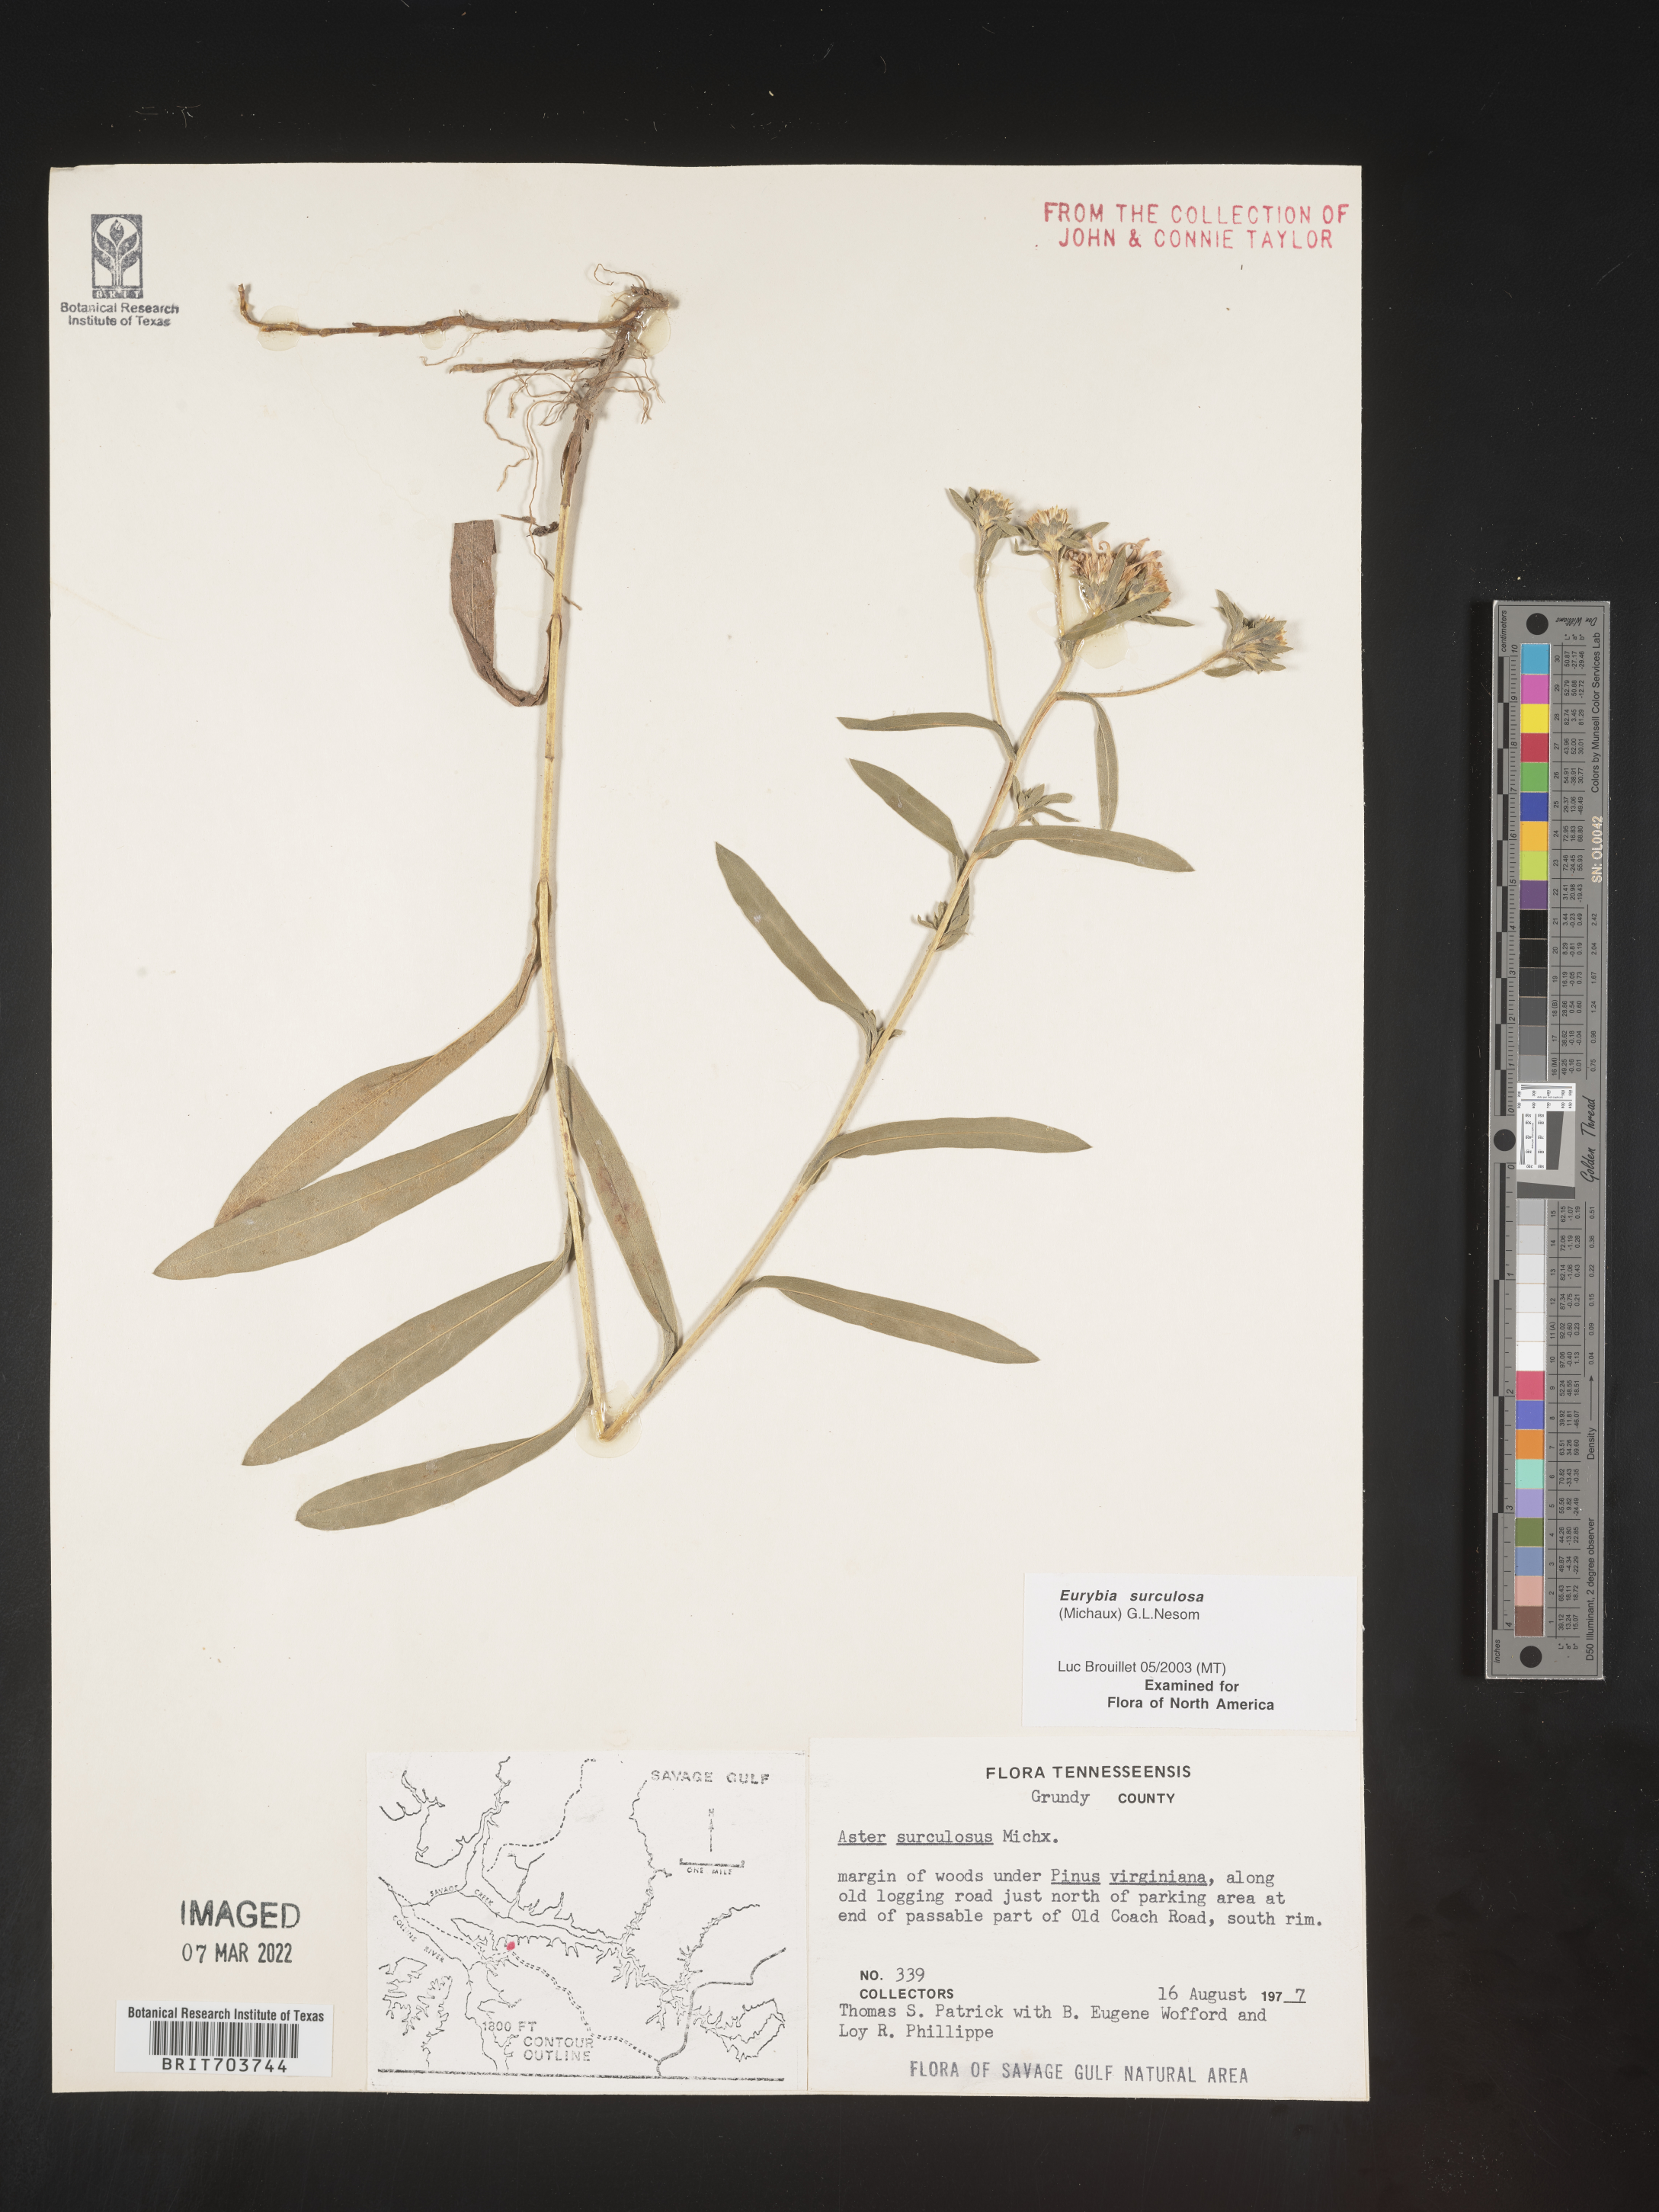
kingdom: Plantae
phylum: Tracheophyta
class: Magnoliopsida
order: Asterales
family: Asteraceae
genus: Eurybia
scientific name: Eurybia surculosa
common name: Creeping aster
